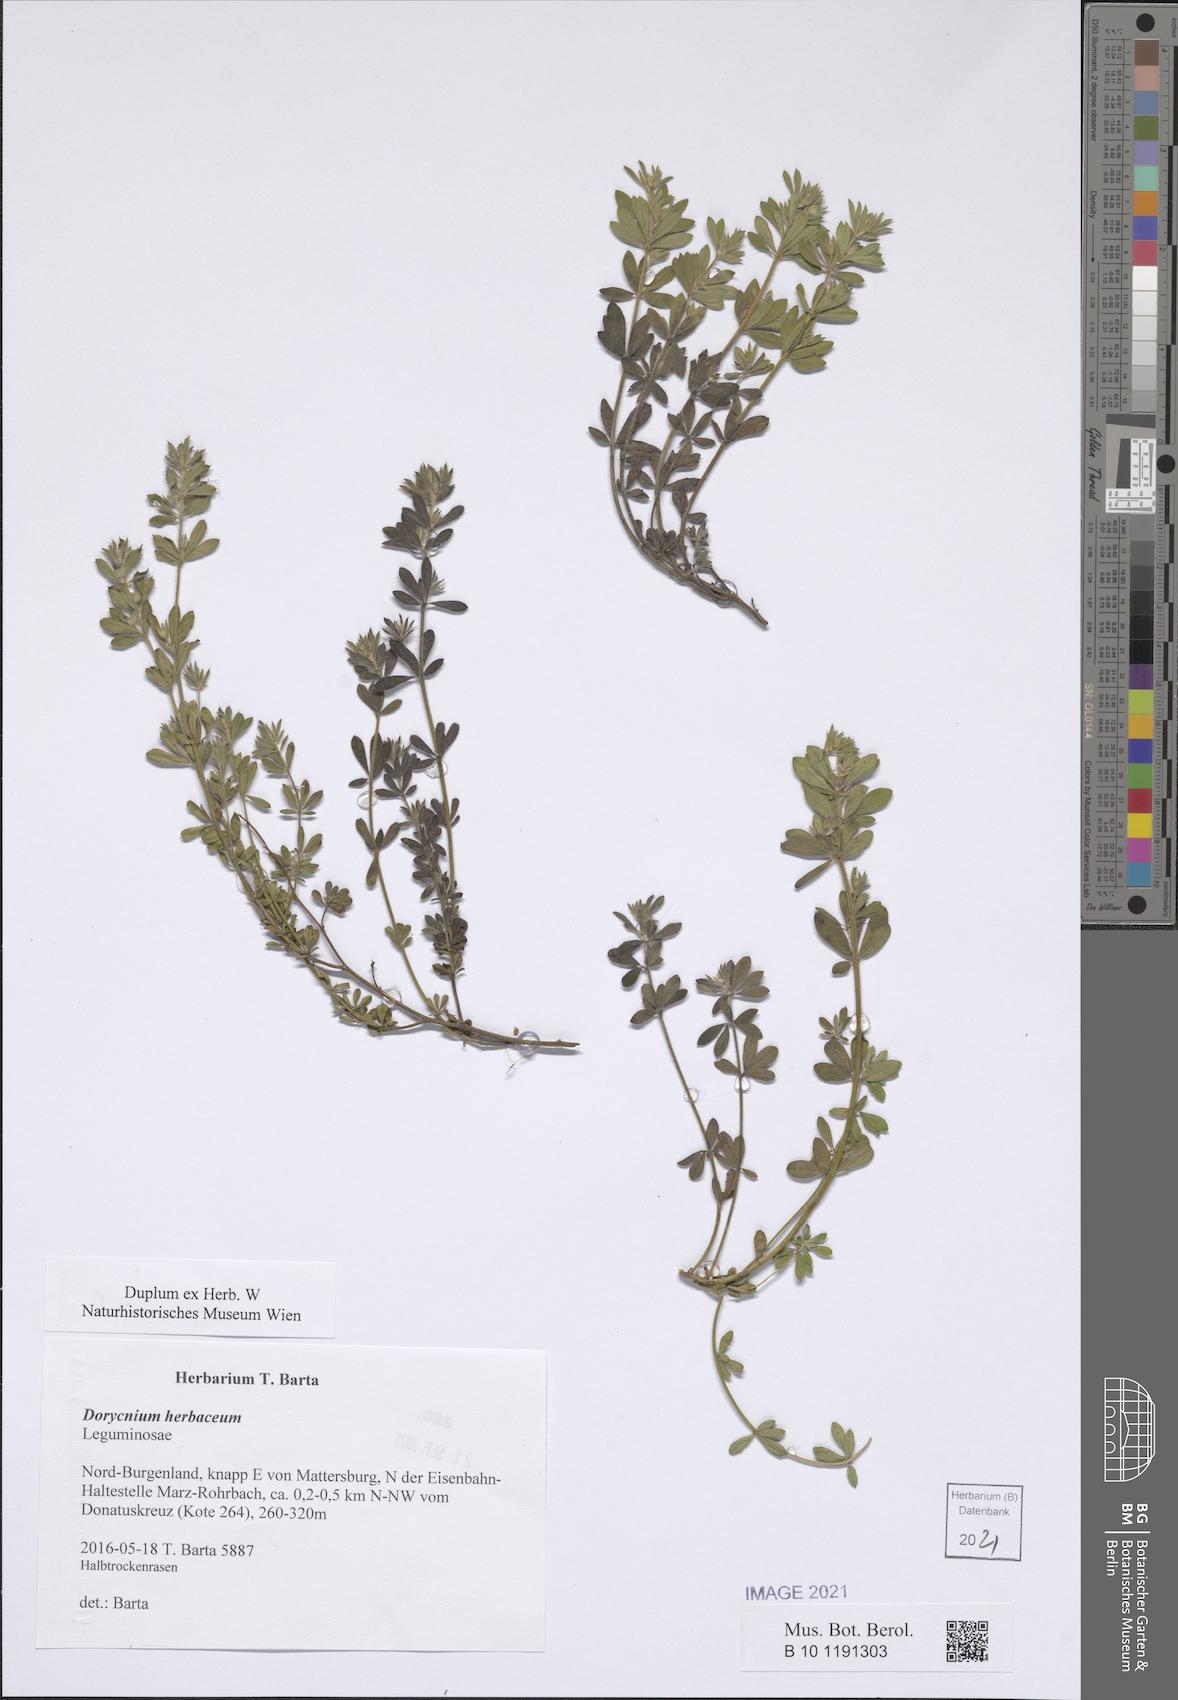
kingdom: Plantae
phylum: Tracheophyta
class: Magnoliopsida
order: Fabales
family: Fabaceae
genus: Lotus
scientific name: Lotus herbaceus
